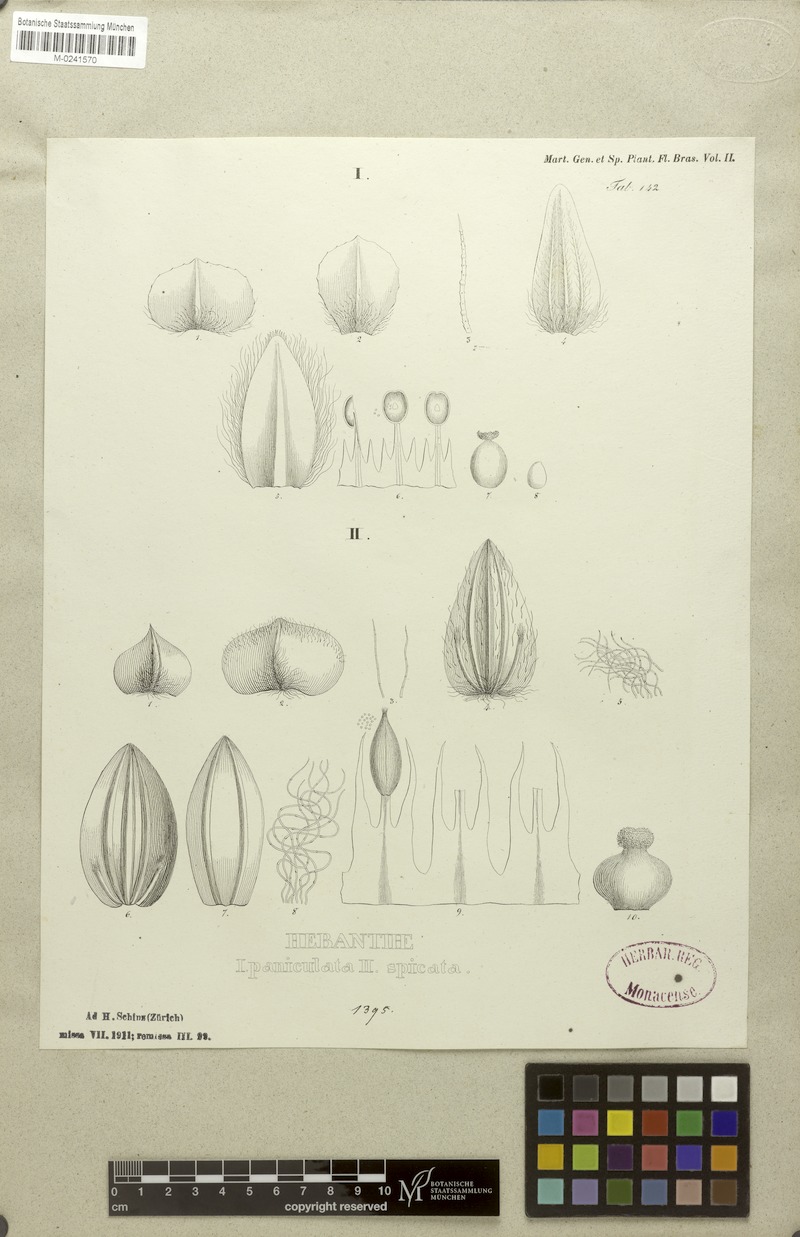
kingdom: Plantae
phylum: Tracheophyta
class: Magnoliopsida
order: Caryophyllales
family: Amaranthaceae
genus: Hebanthe
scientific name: Hebanthe erianthos
